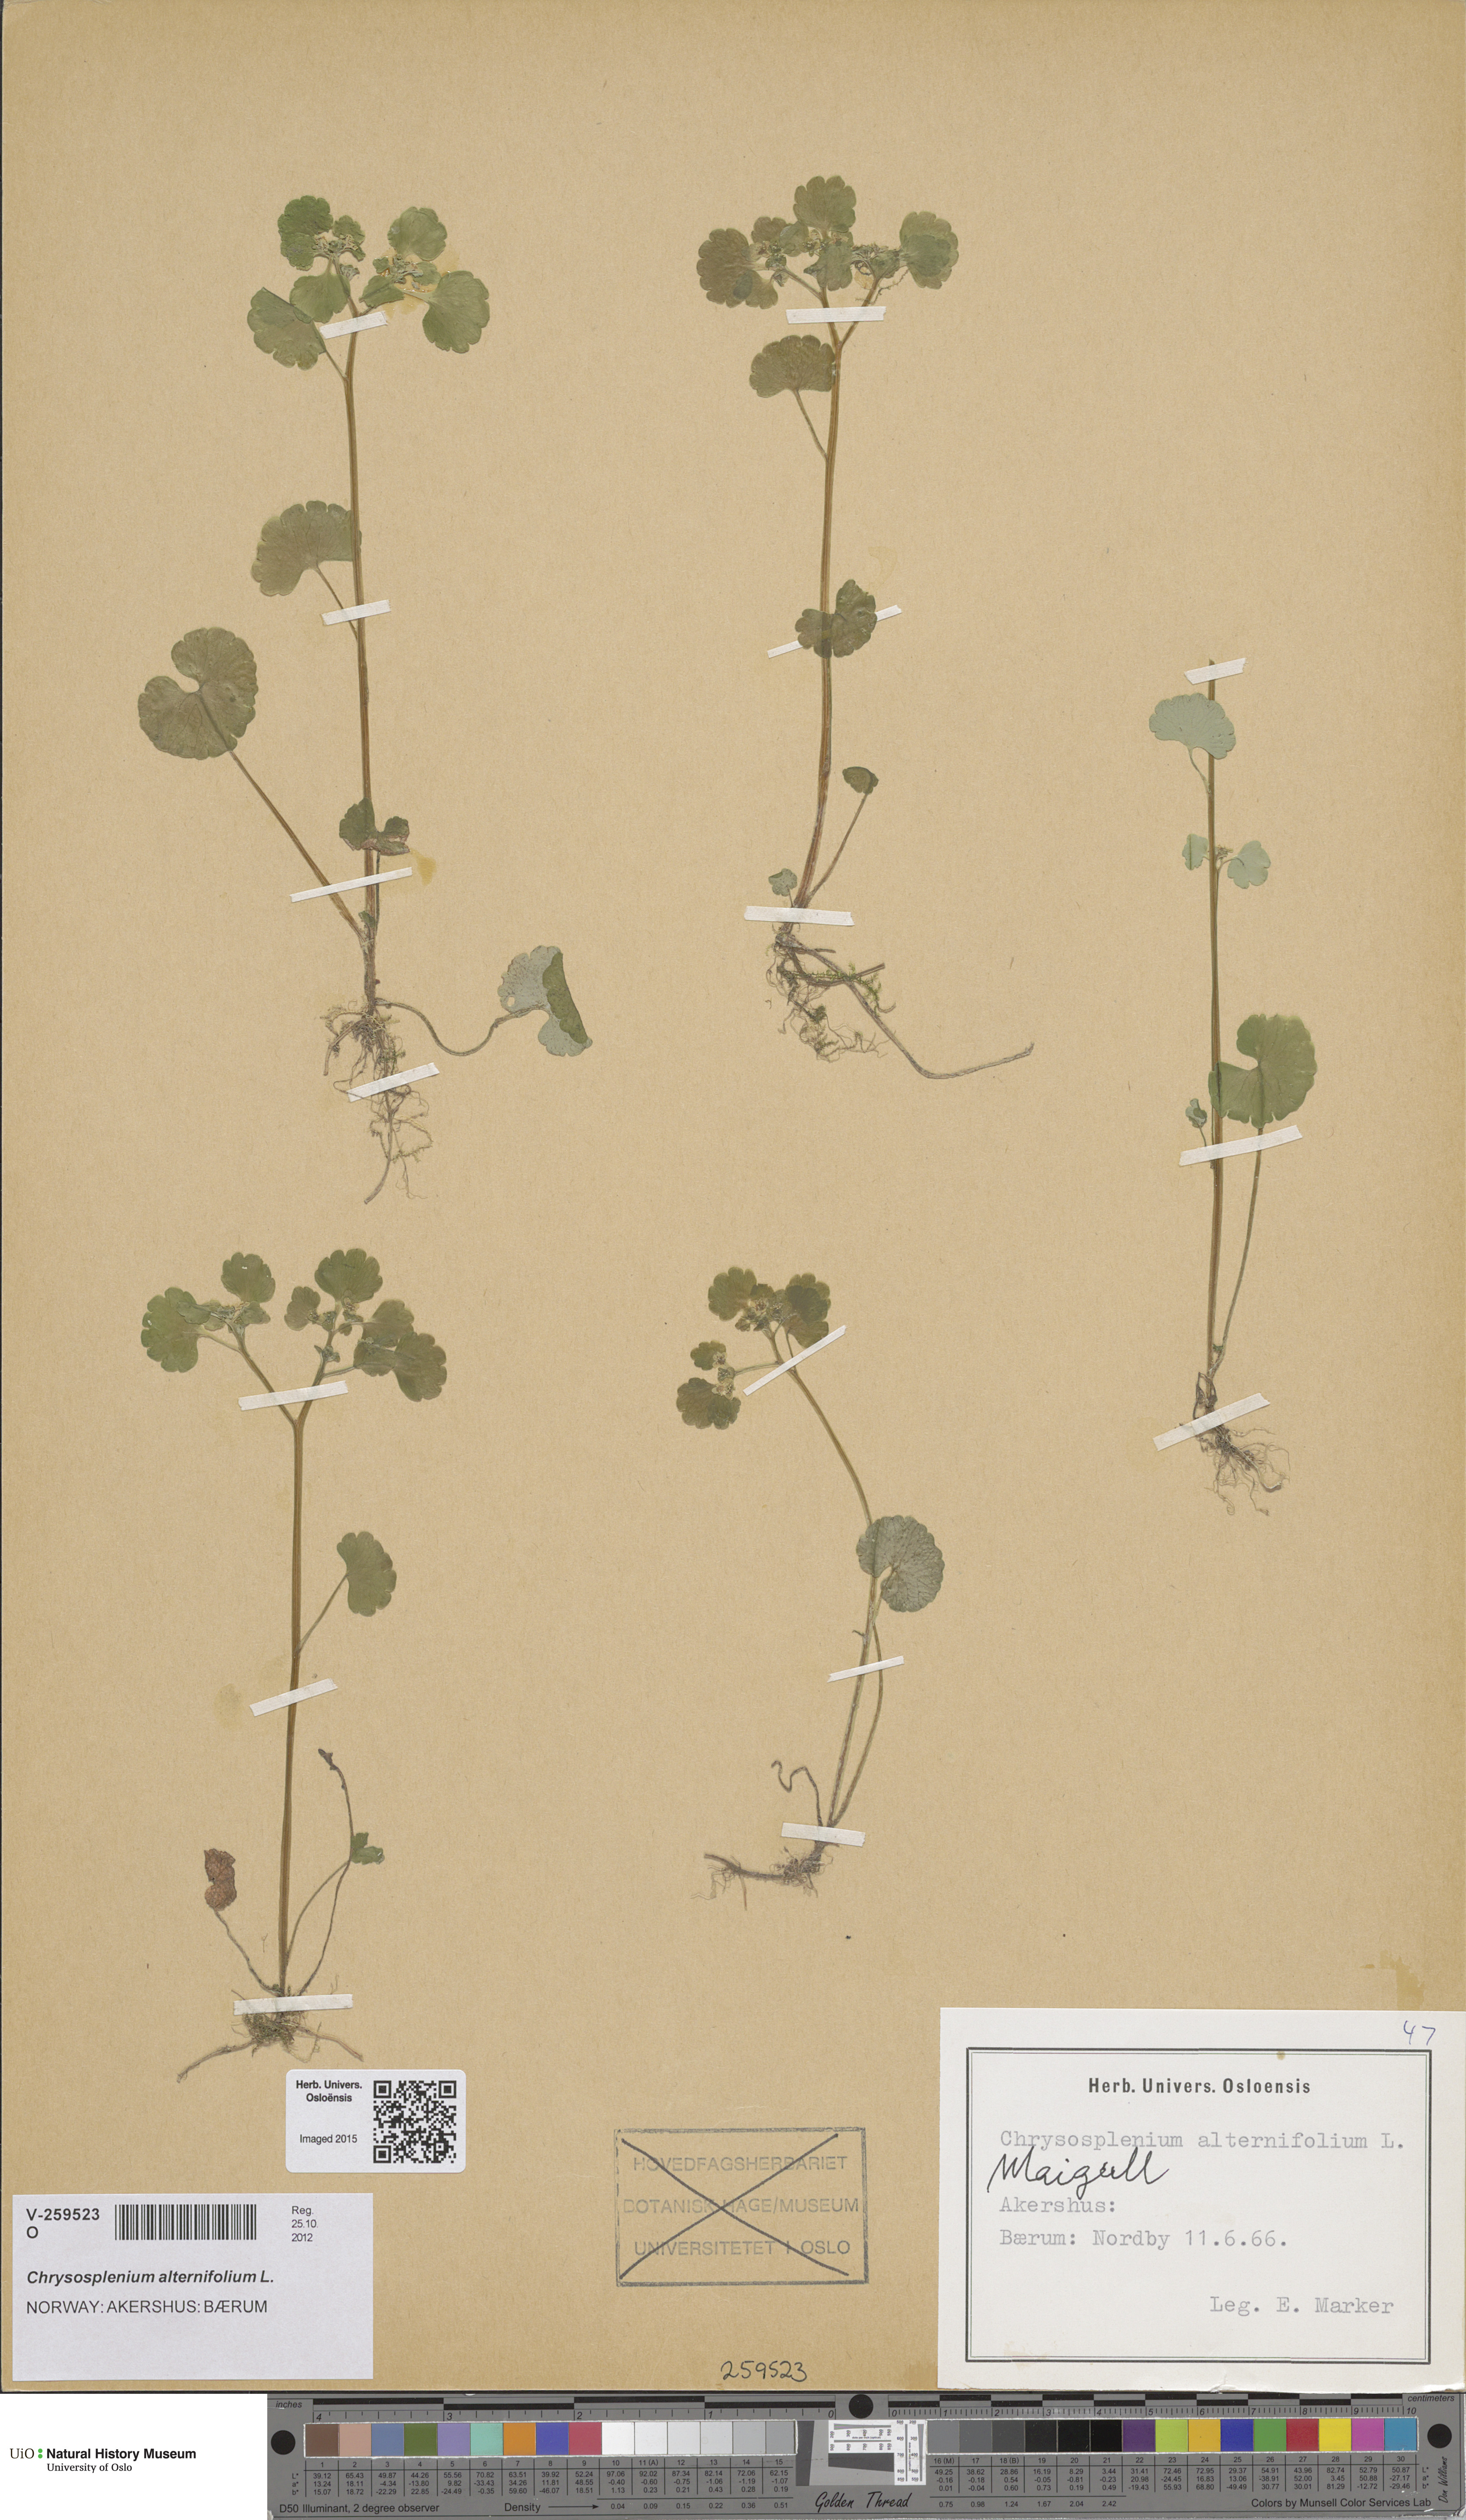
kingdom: Plantae
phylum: Tracheophyta
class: Magnoliopsida
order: Saxifragales
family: Saxifragaceae
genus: Chrysosplenium
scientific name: Chrysosplenium alternifolium
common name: Alternate-leaved golden-saxifrage
